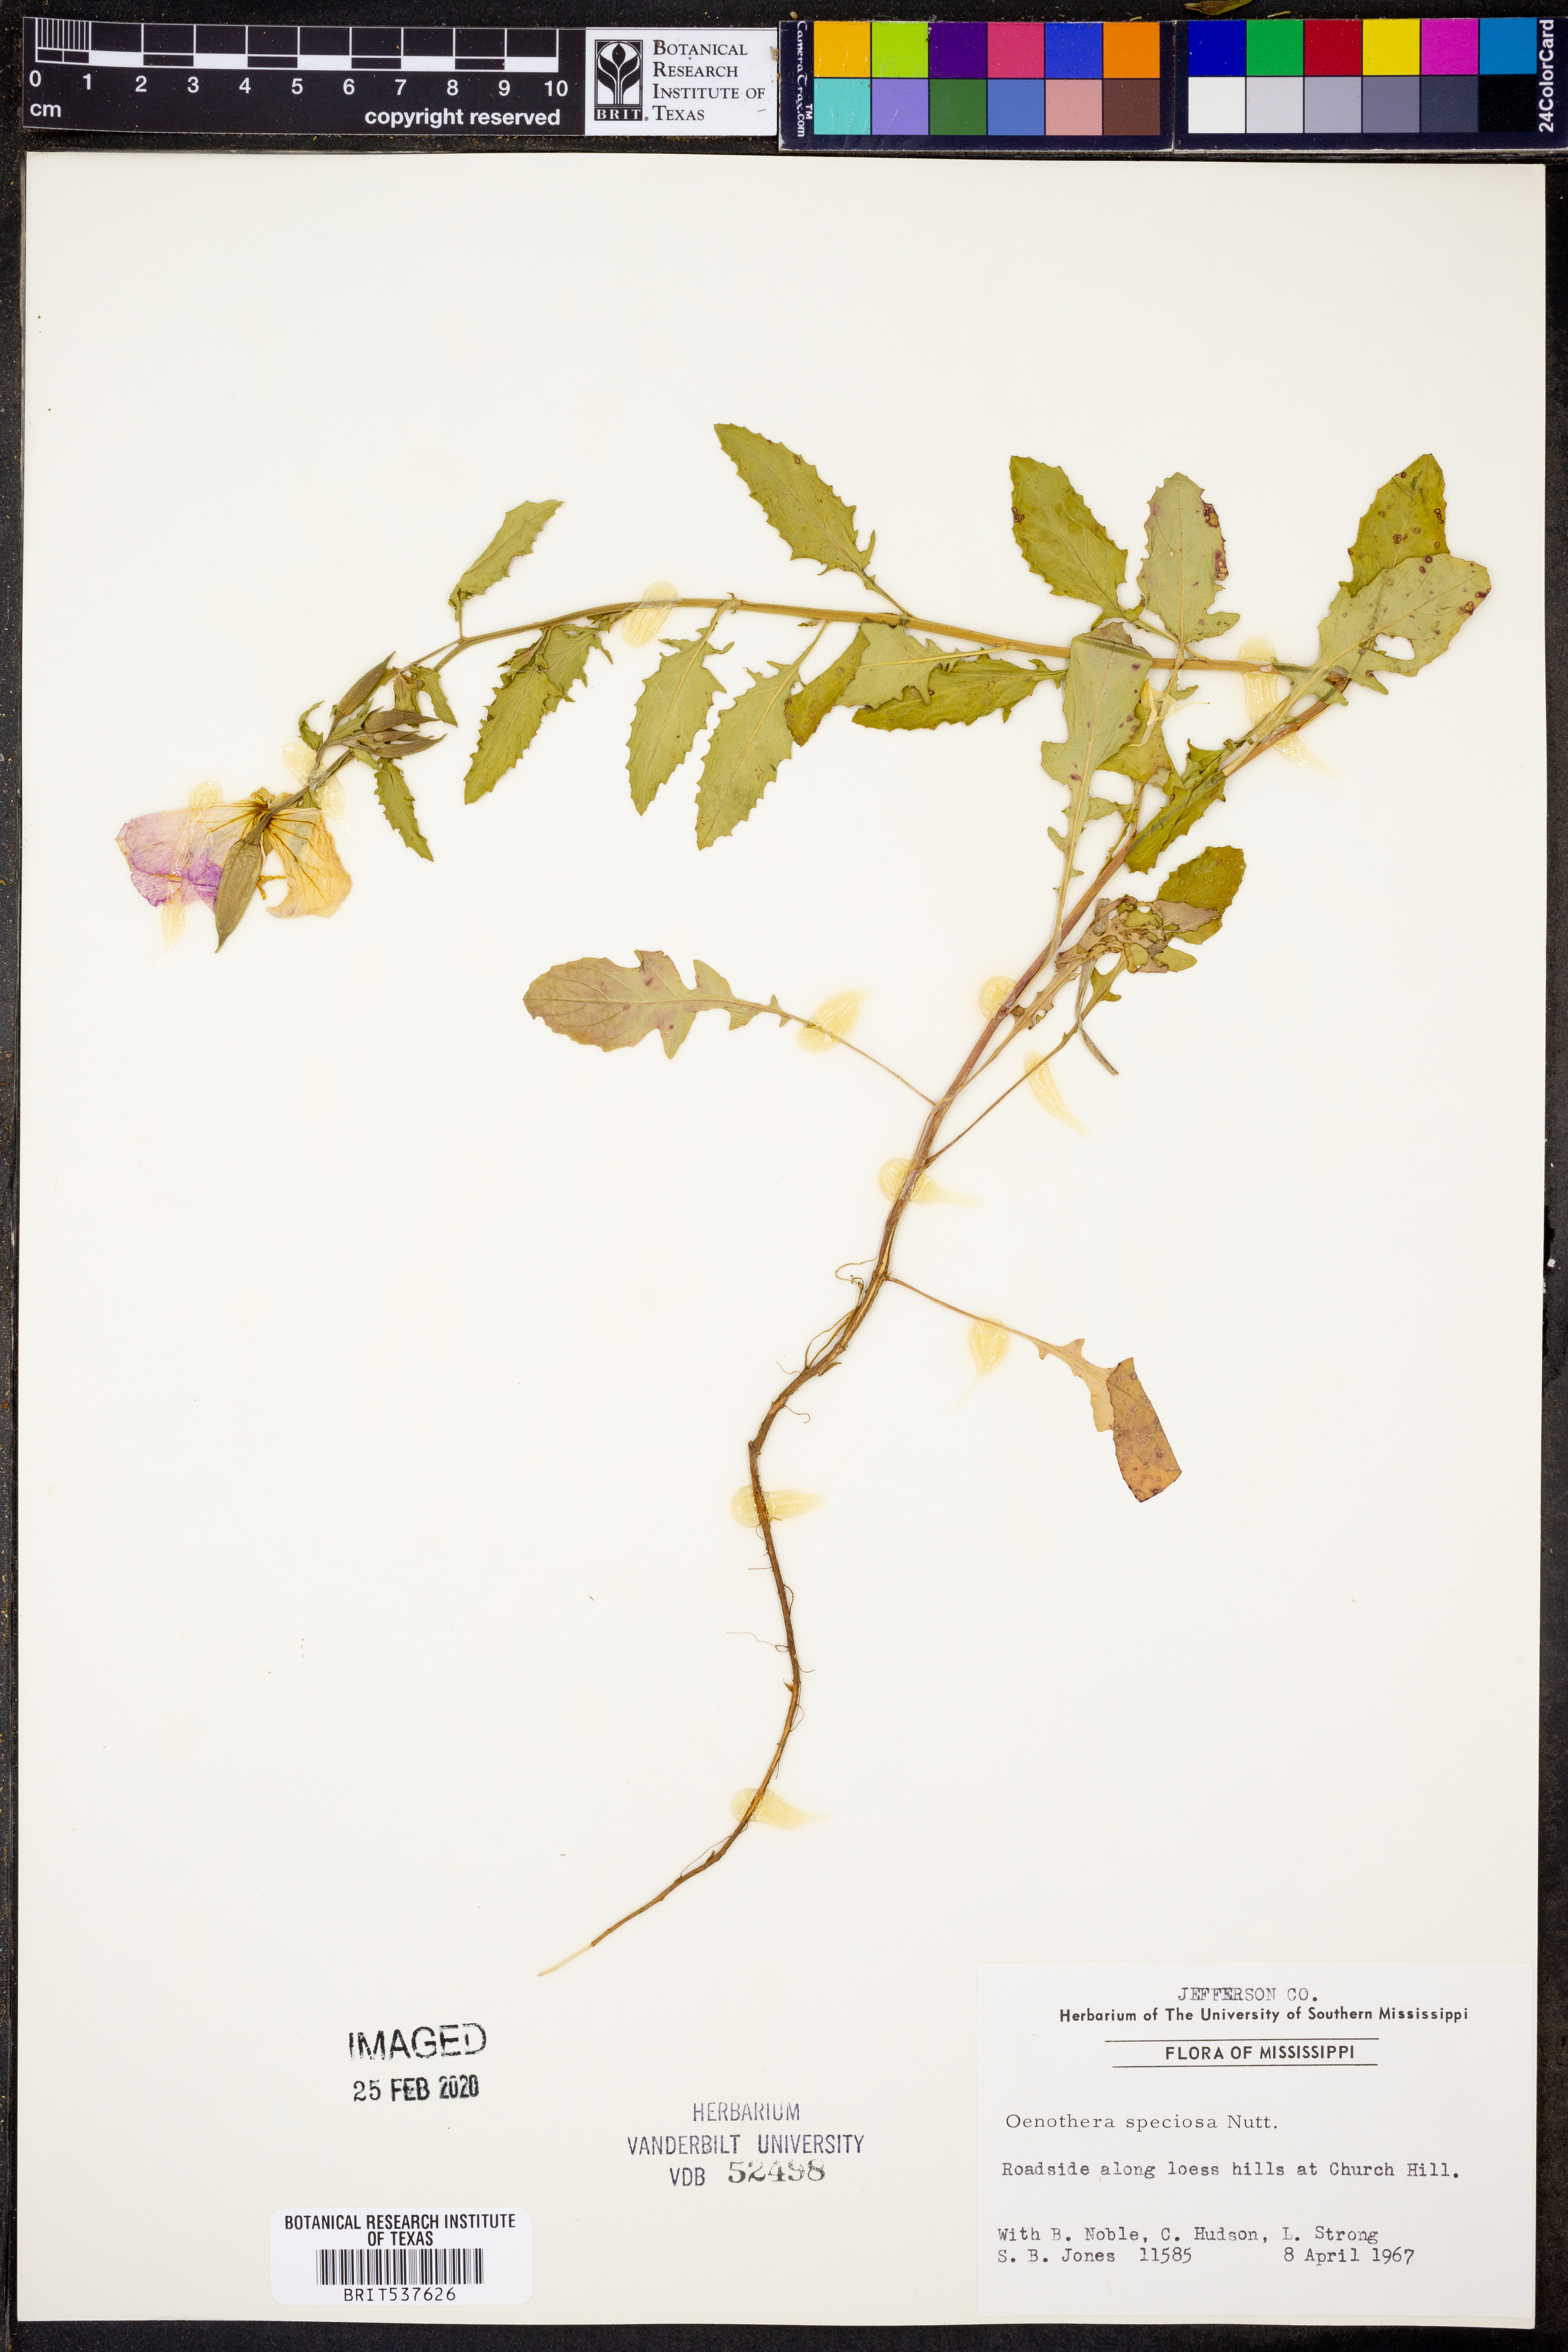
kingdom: Plantae
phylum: Tracheophyta
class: Magnoliopsida
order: Myrtales
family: Onagraceae
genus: Oenothera
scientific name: Oenothera speciosa
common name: White evening-primrose
